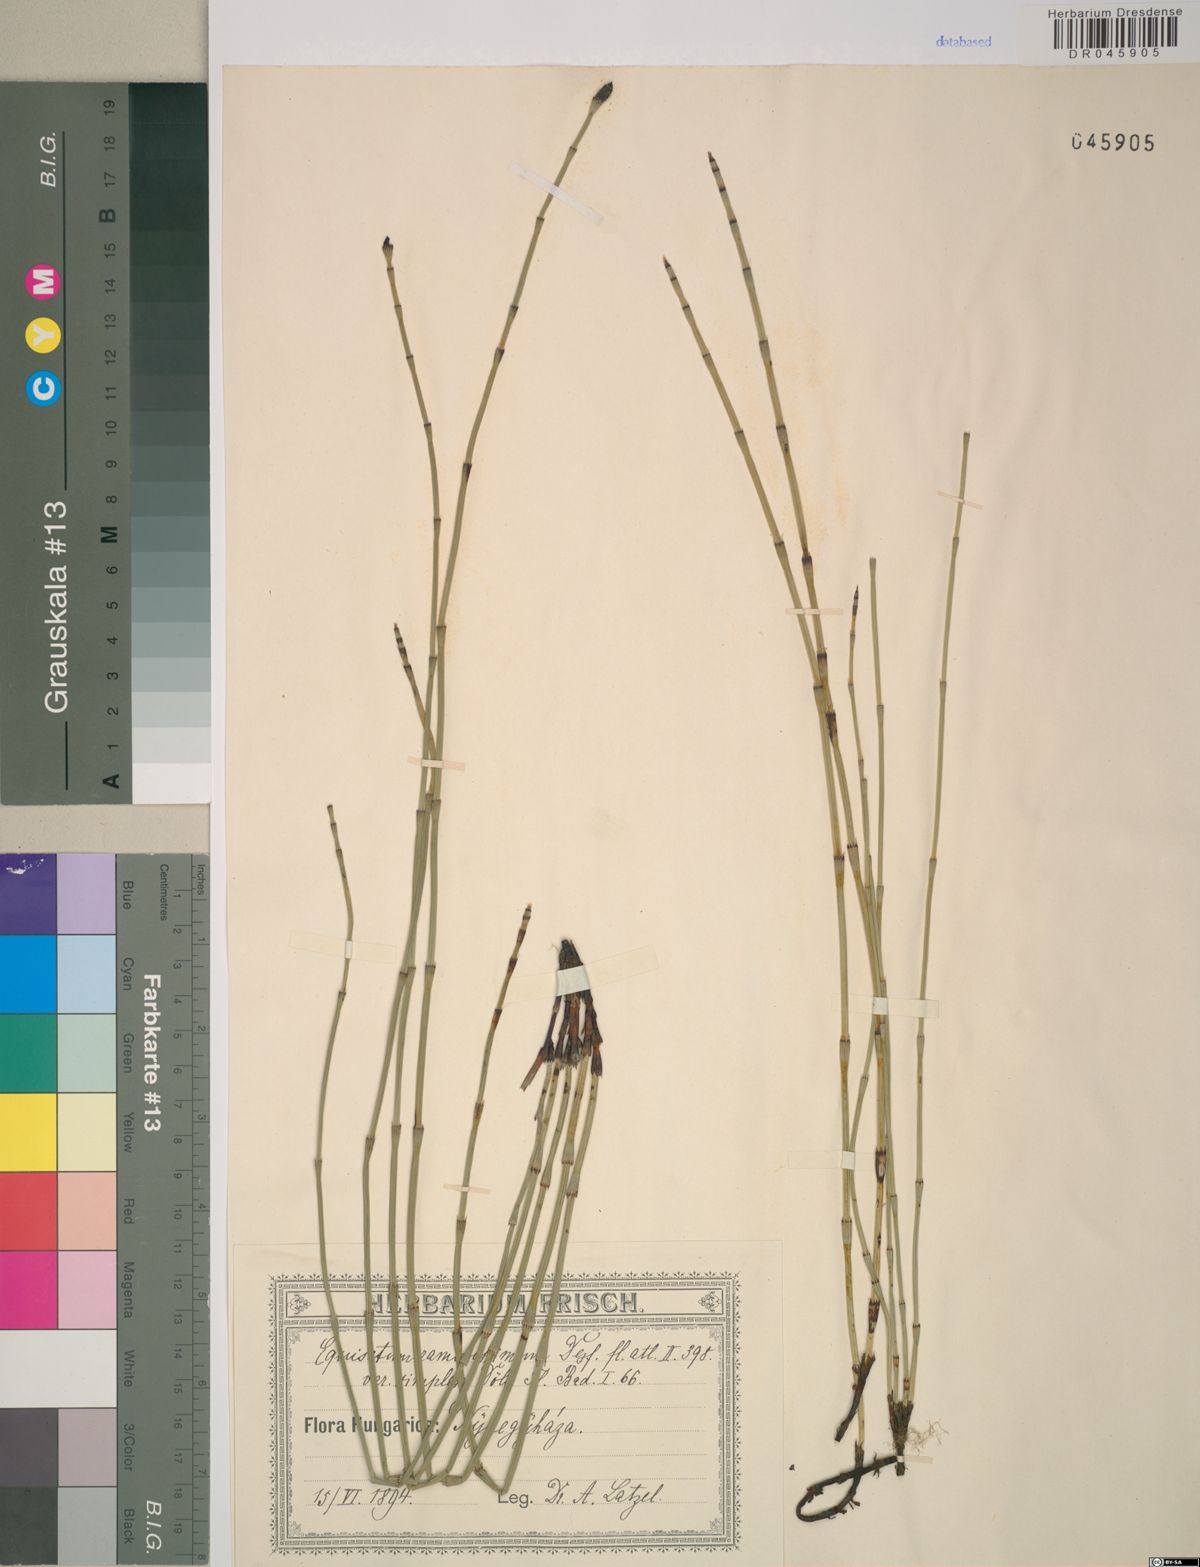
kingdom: Plantae
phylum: Tracheophyta
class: Polypodiopsida
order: Equisetales
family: Equisetaceae
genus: Equisetum
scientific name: Equisetum ramosissimum
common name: Branched horsetail
